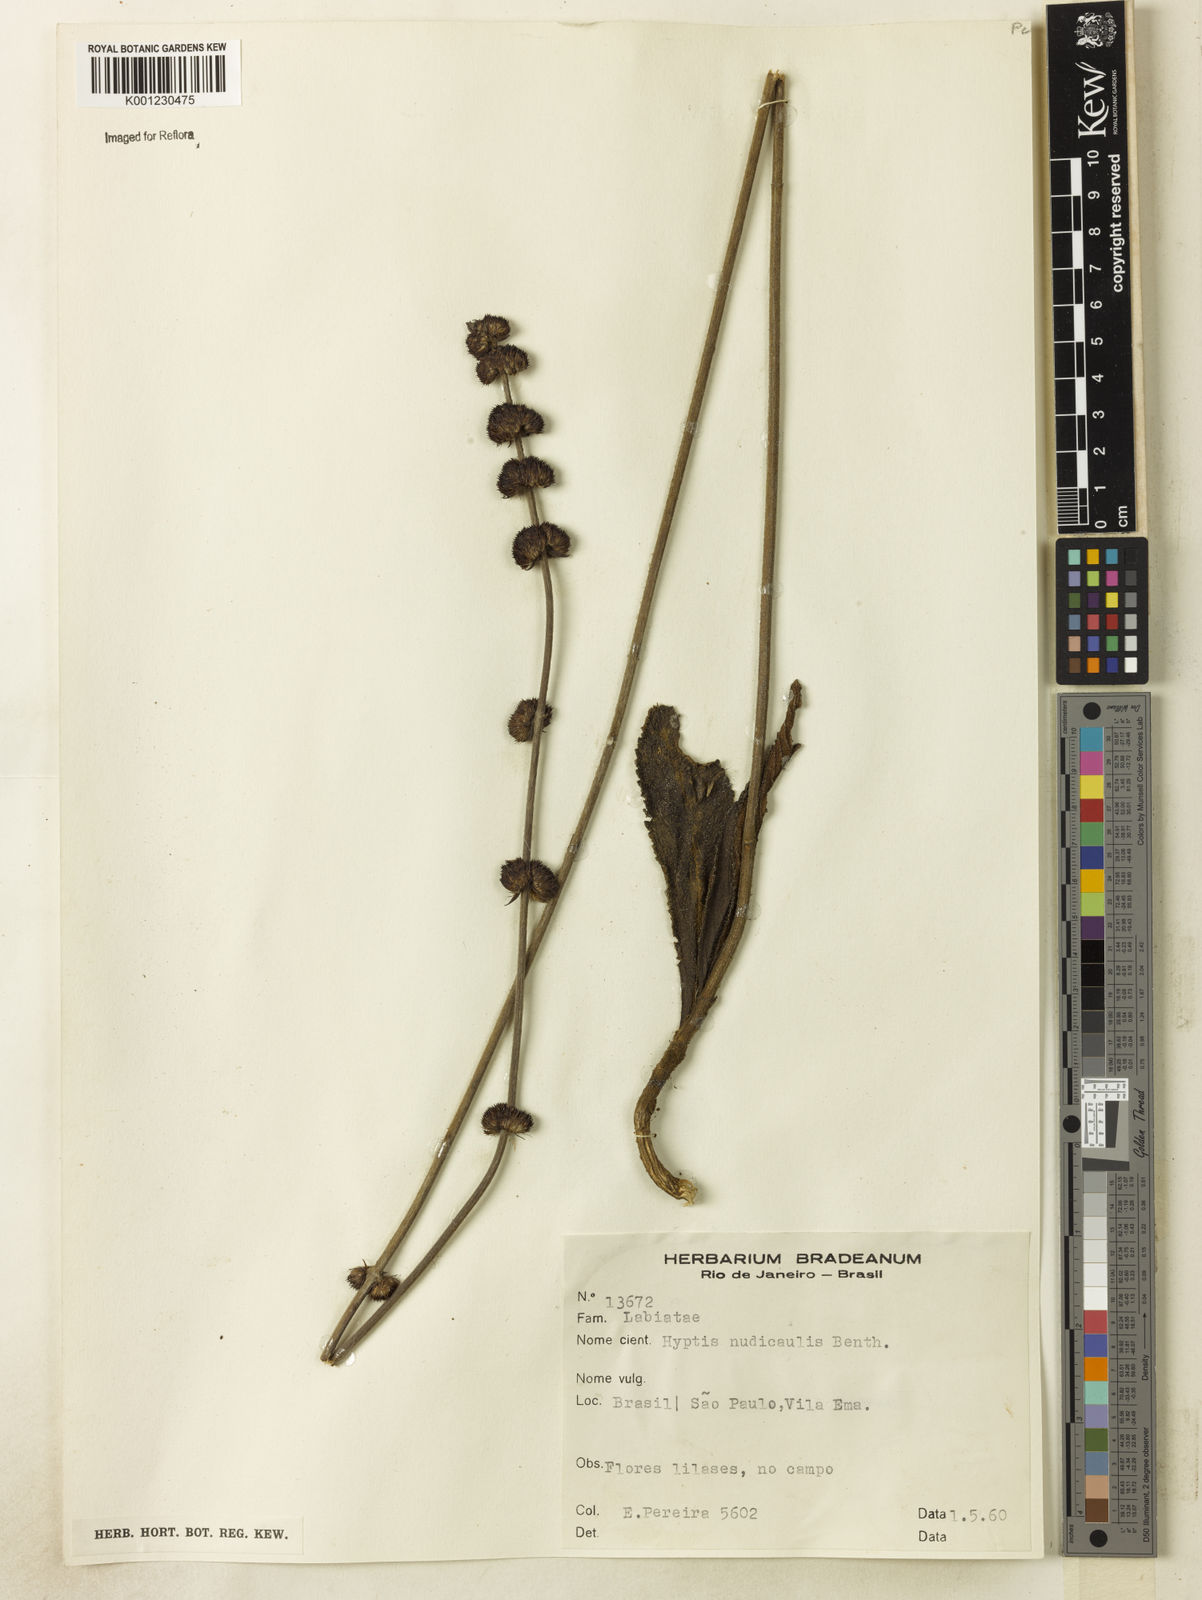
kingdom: Plantae
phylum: Tracheophyta
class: Magnoliopsida
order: Lamiales
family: Lamiaceae
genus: Hyptis
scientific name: Hyptis nudicaulis
